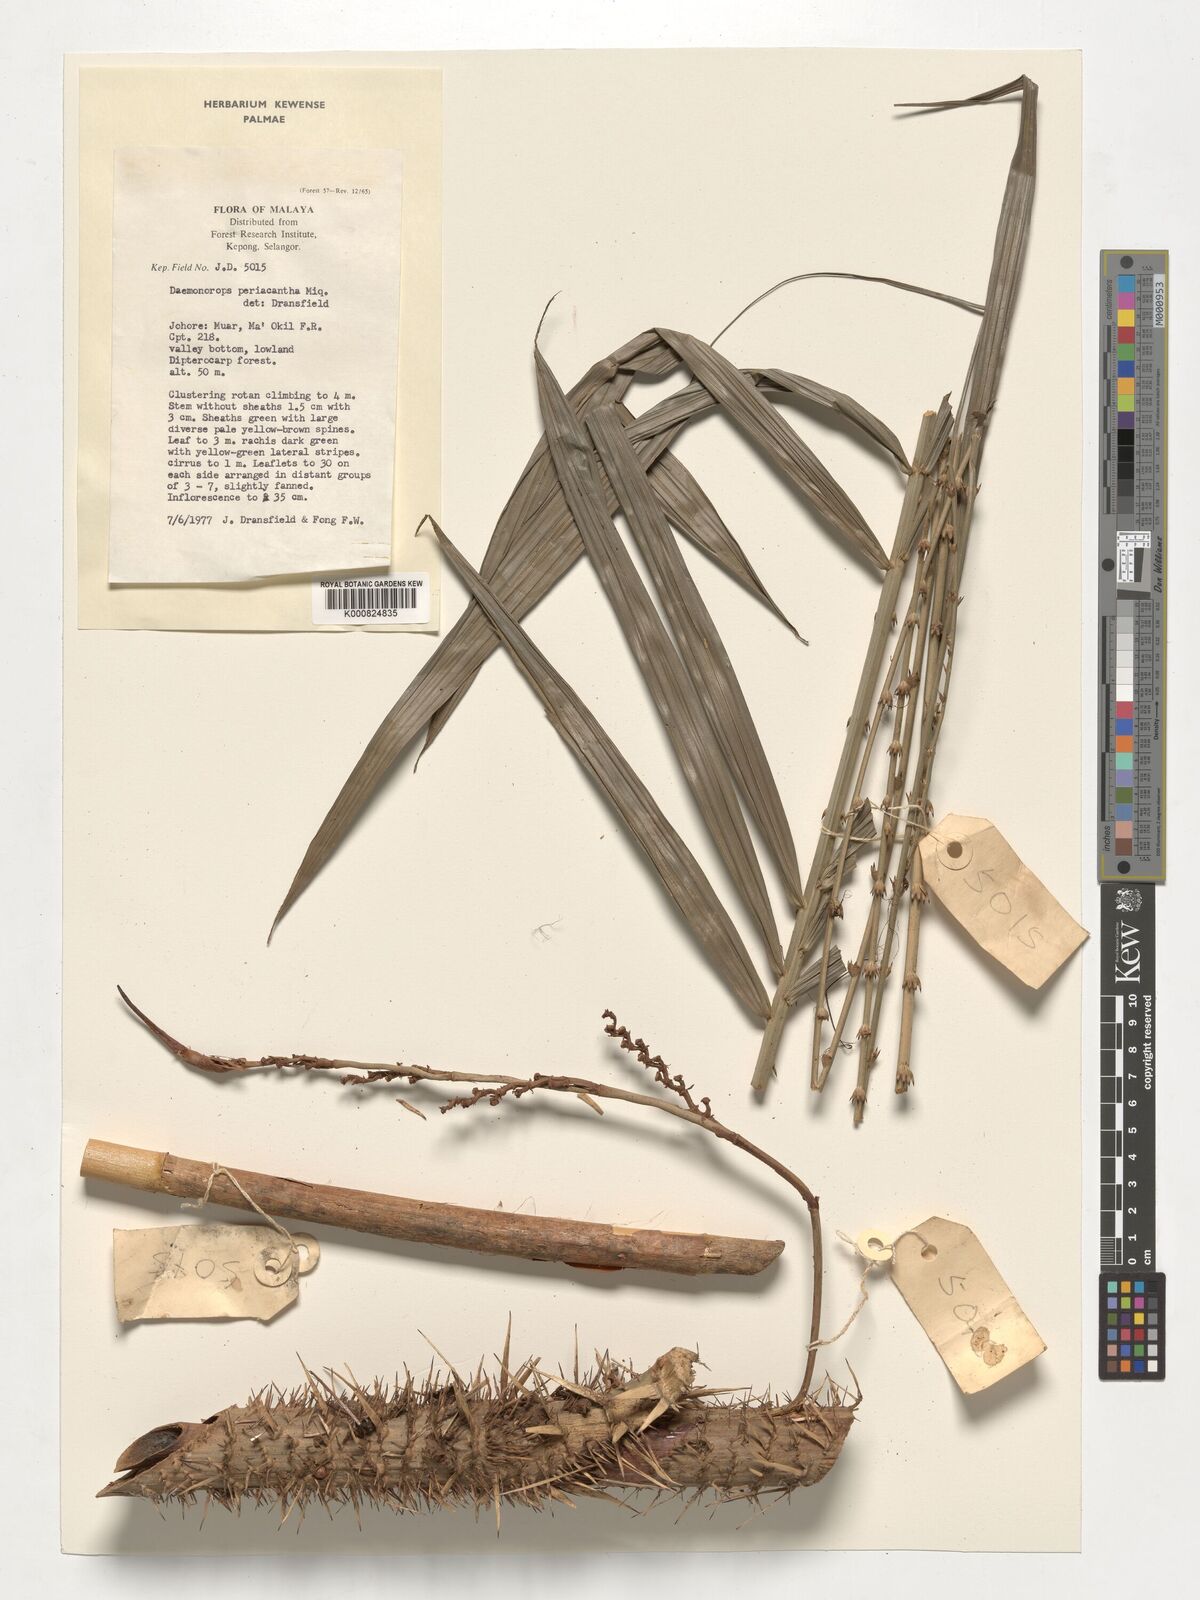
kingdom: Plantae
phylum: Tracheophyta
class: Liliopsida
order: Arecales
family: Arecaceae
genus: Calamus
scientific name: Calamus periacanthus
